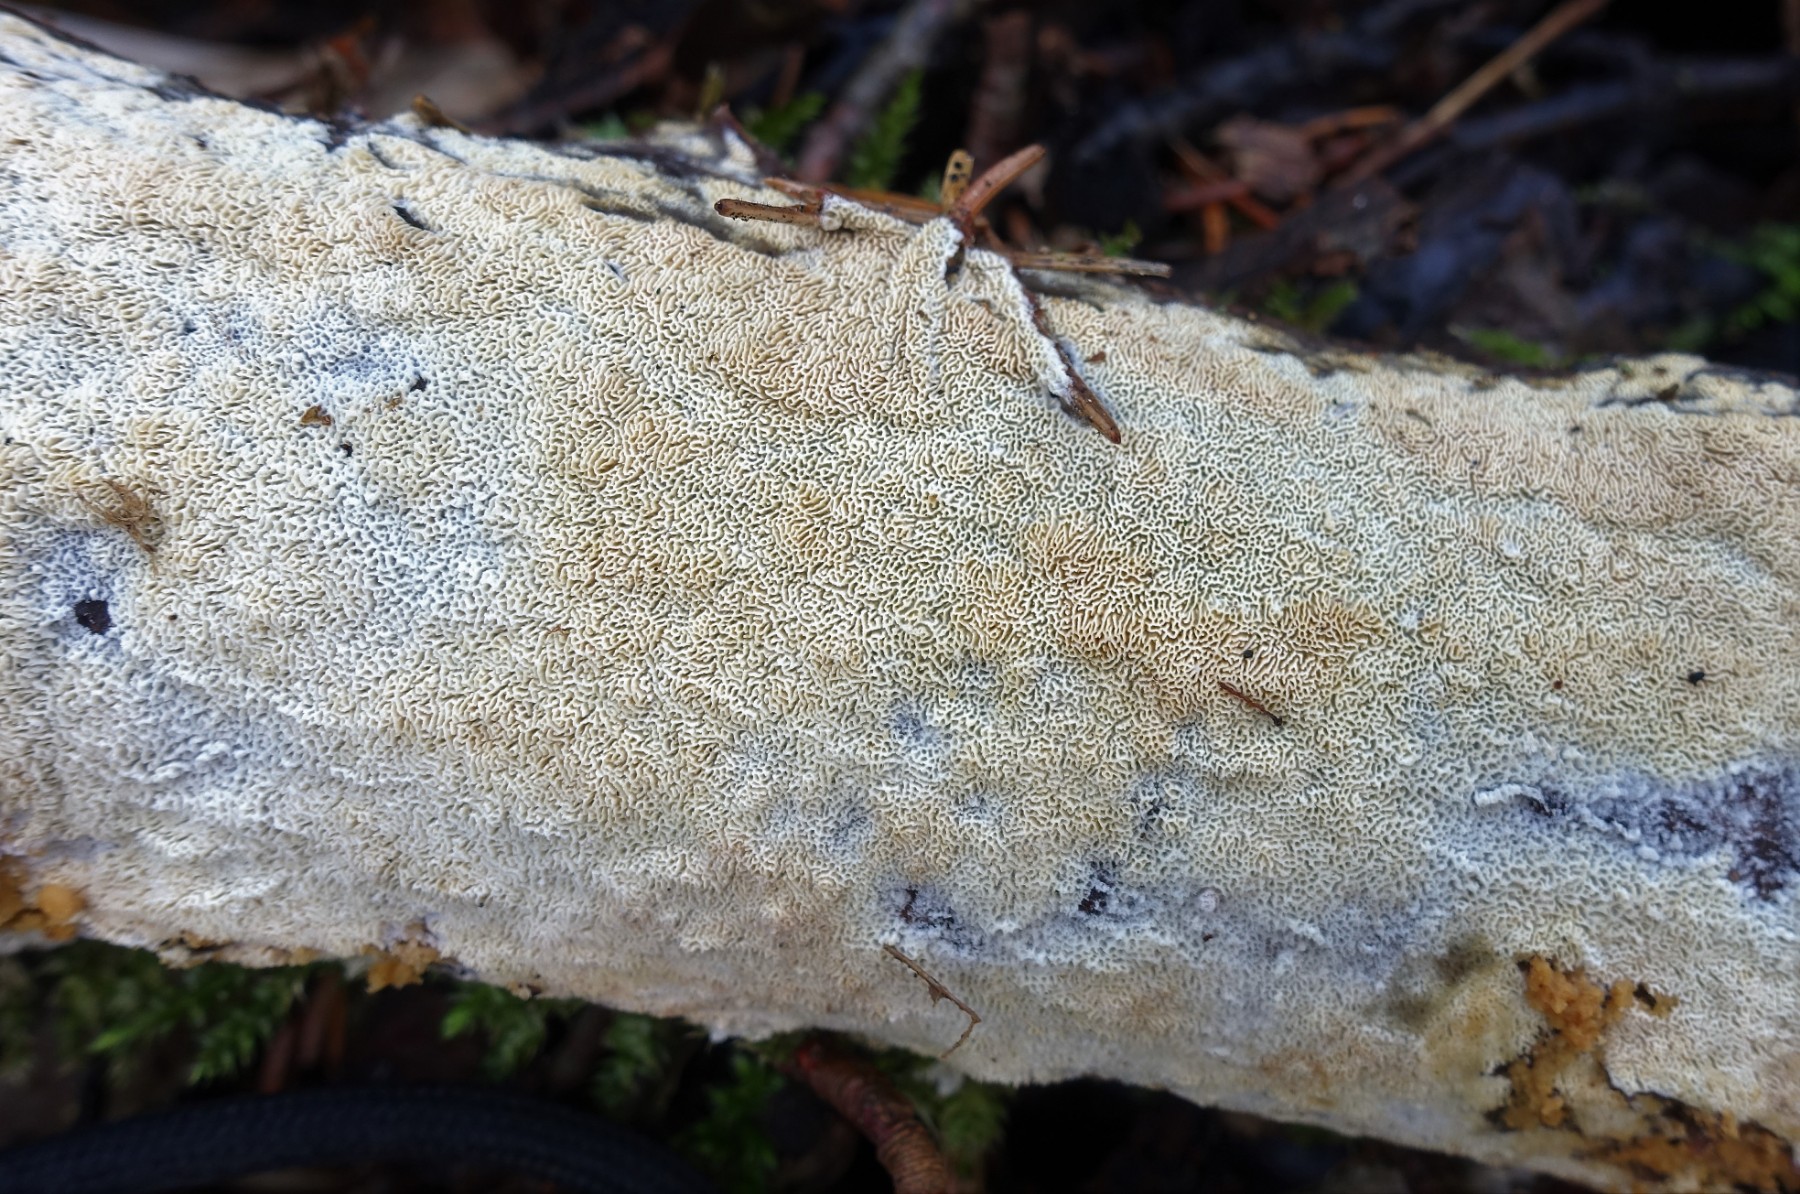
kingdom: Fungi
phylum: Basidiomycota
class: Agaricomycetes
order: Hymenochaetales
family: Schizoporaceae
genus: Xylodon
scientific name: Xylodon subtropicus
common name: labyrint-tandsvamp
